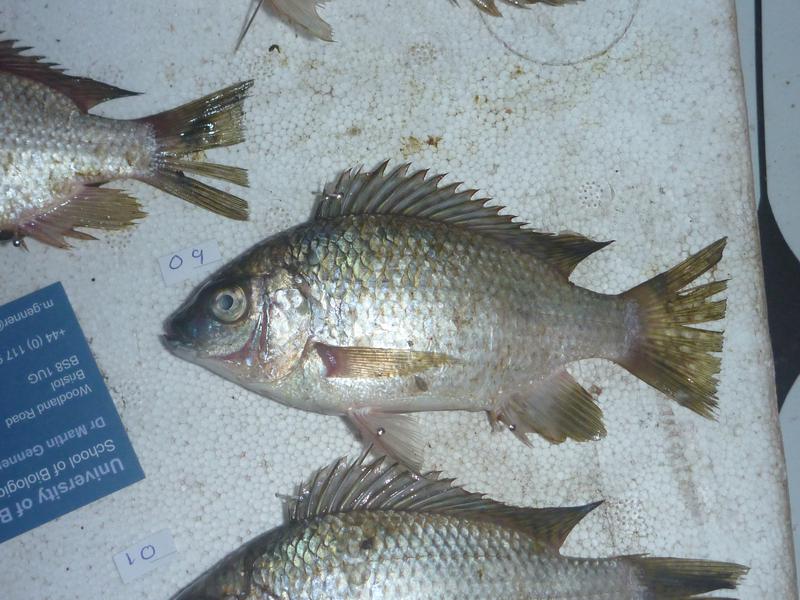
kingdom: Animalia
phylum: Chordata
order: Perciformes
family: Cichlidae
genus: Oreochromis
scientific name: Oreochromis karomo
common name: Karomo
